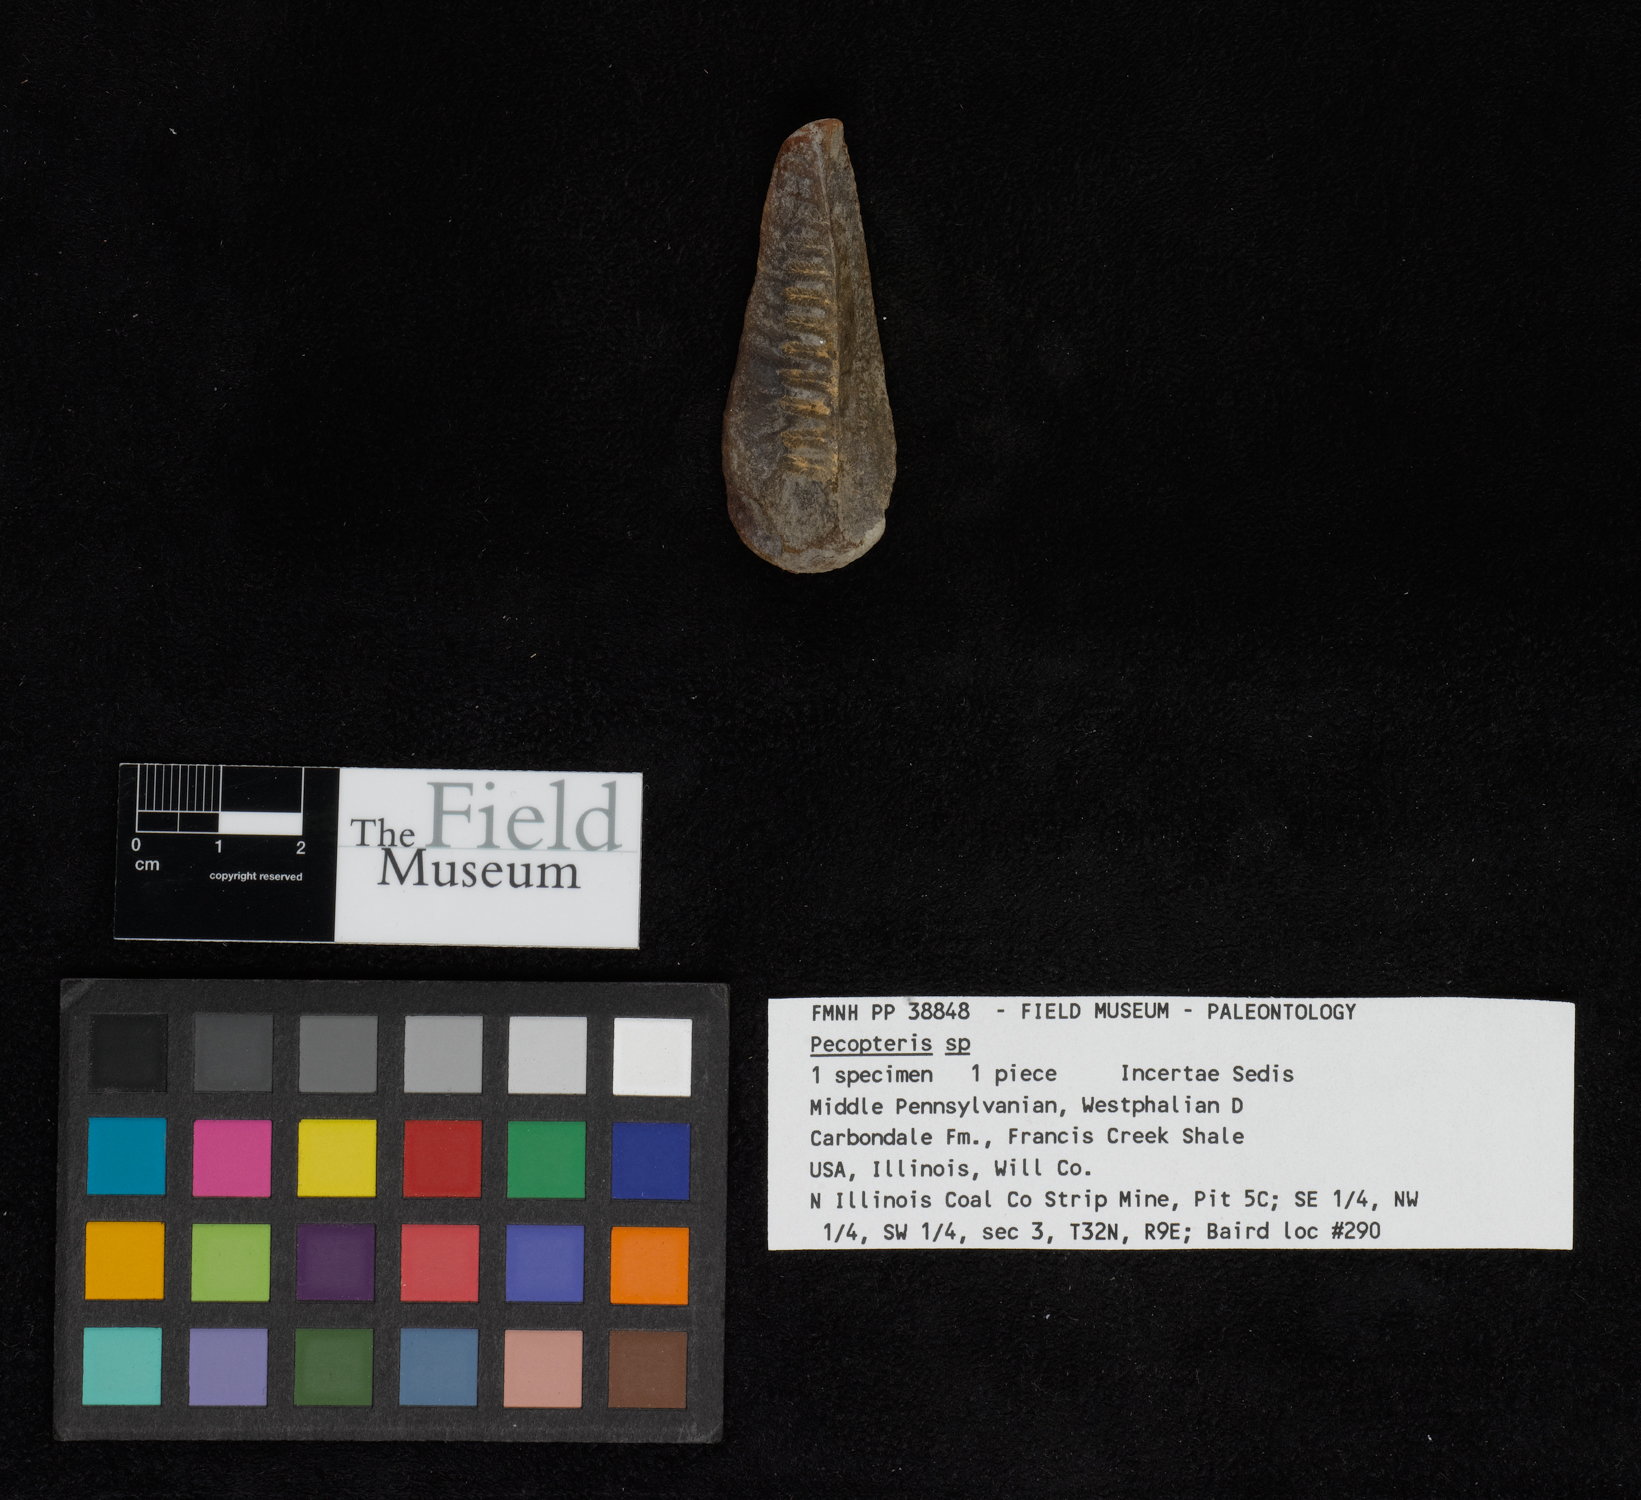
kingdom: Plantae
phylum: Tracheophyta
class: Polypodiopsida
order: Marattiales
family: Asterothecaceae
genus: Pecopteris
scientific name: Pecopteris
